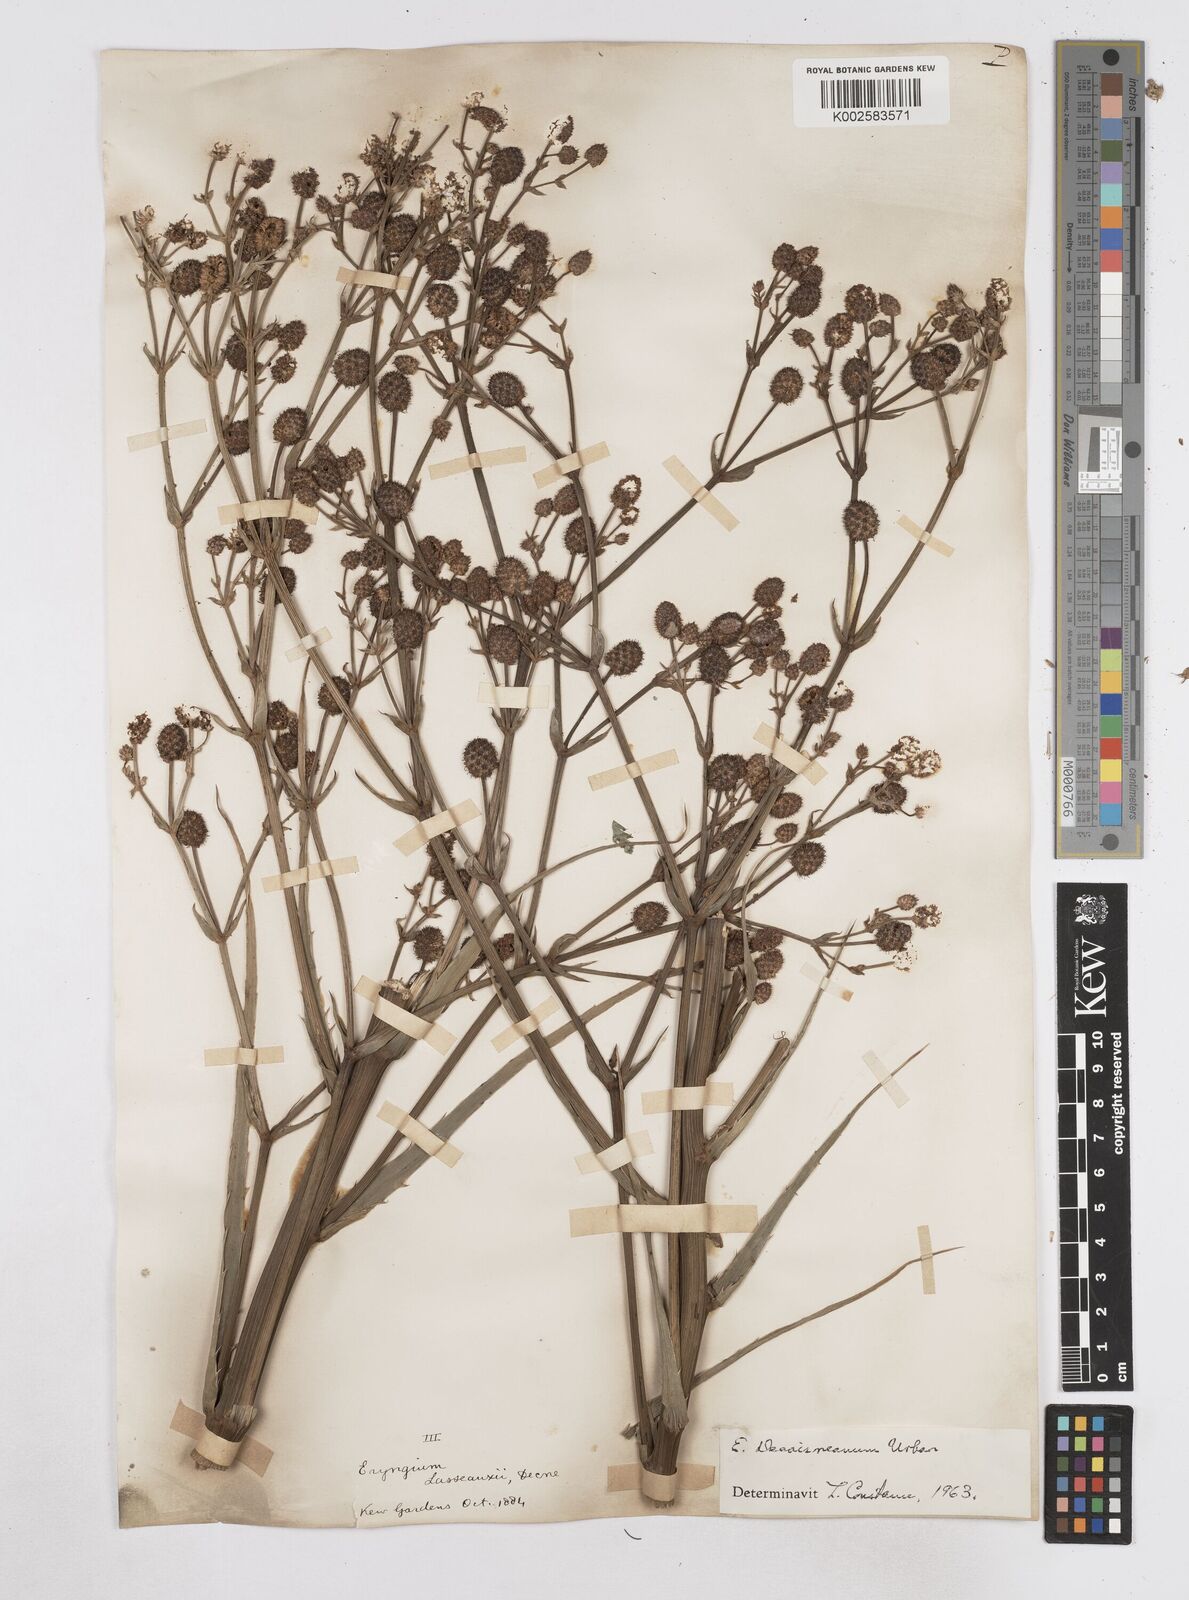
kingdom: Plantae
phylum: Tracheophyta
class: Magnoliopsida
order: Apiales
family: Apiaceae
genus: Eryngium
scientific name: Eryngium pandanifolium
